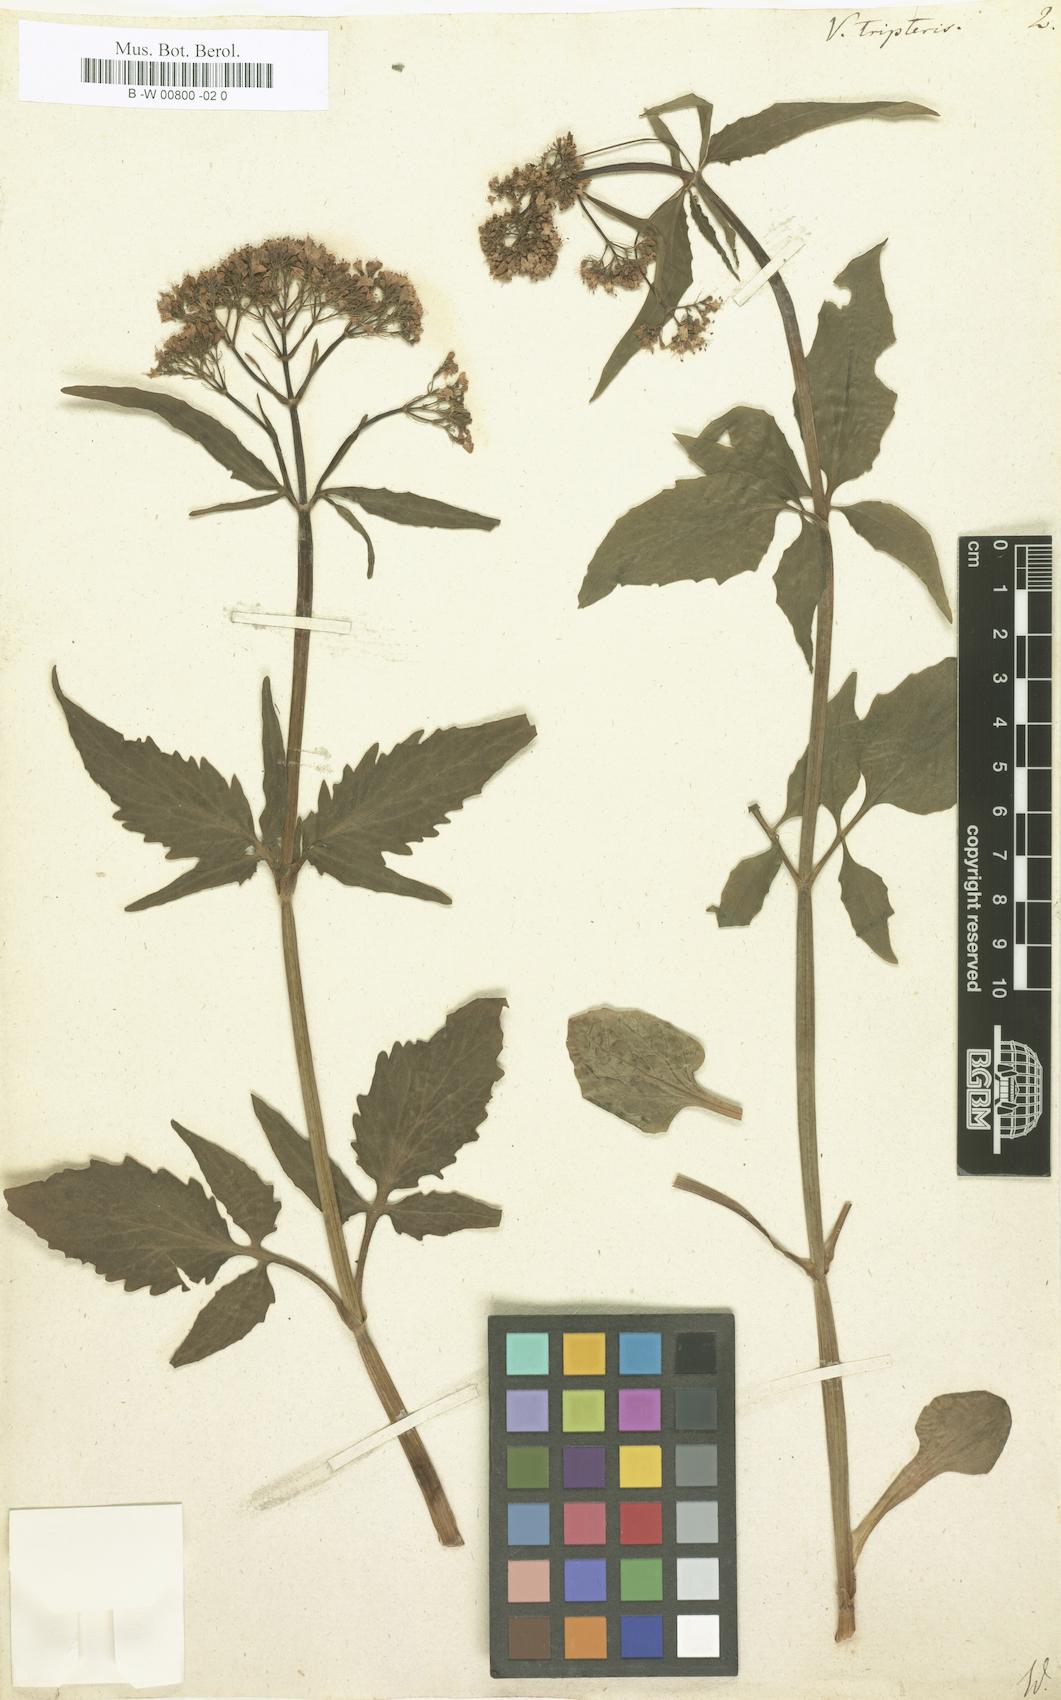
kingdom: Plantae
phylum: Tracheophyta
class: Magnoliopsida
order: Dipsacales
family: Caprifoliaceae
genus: Valeriana
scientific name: Valeriana tripteris
